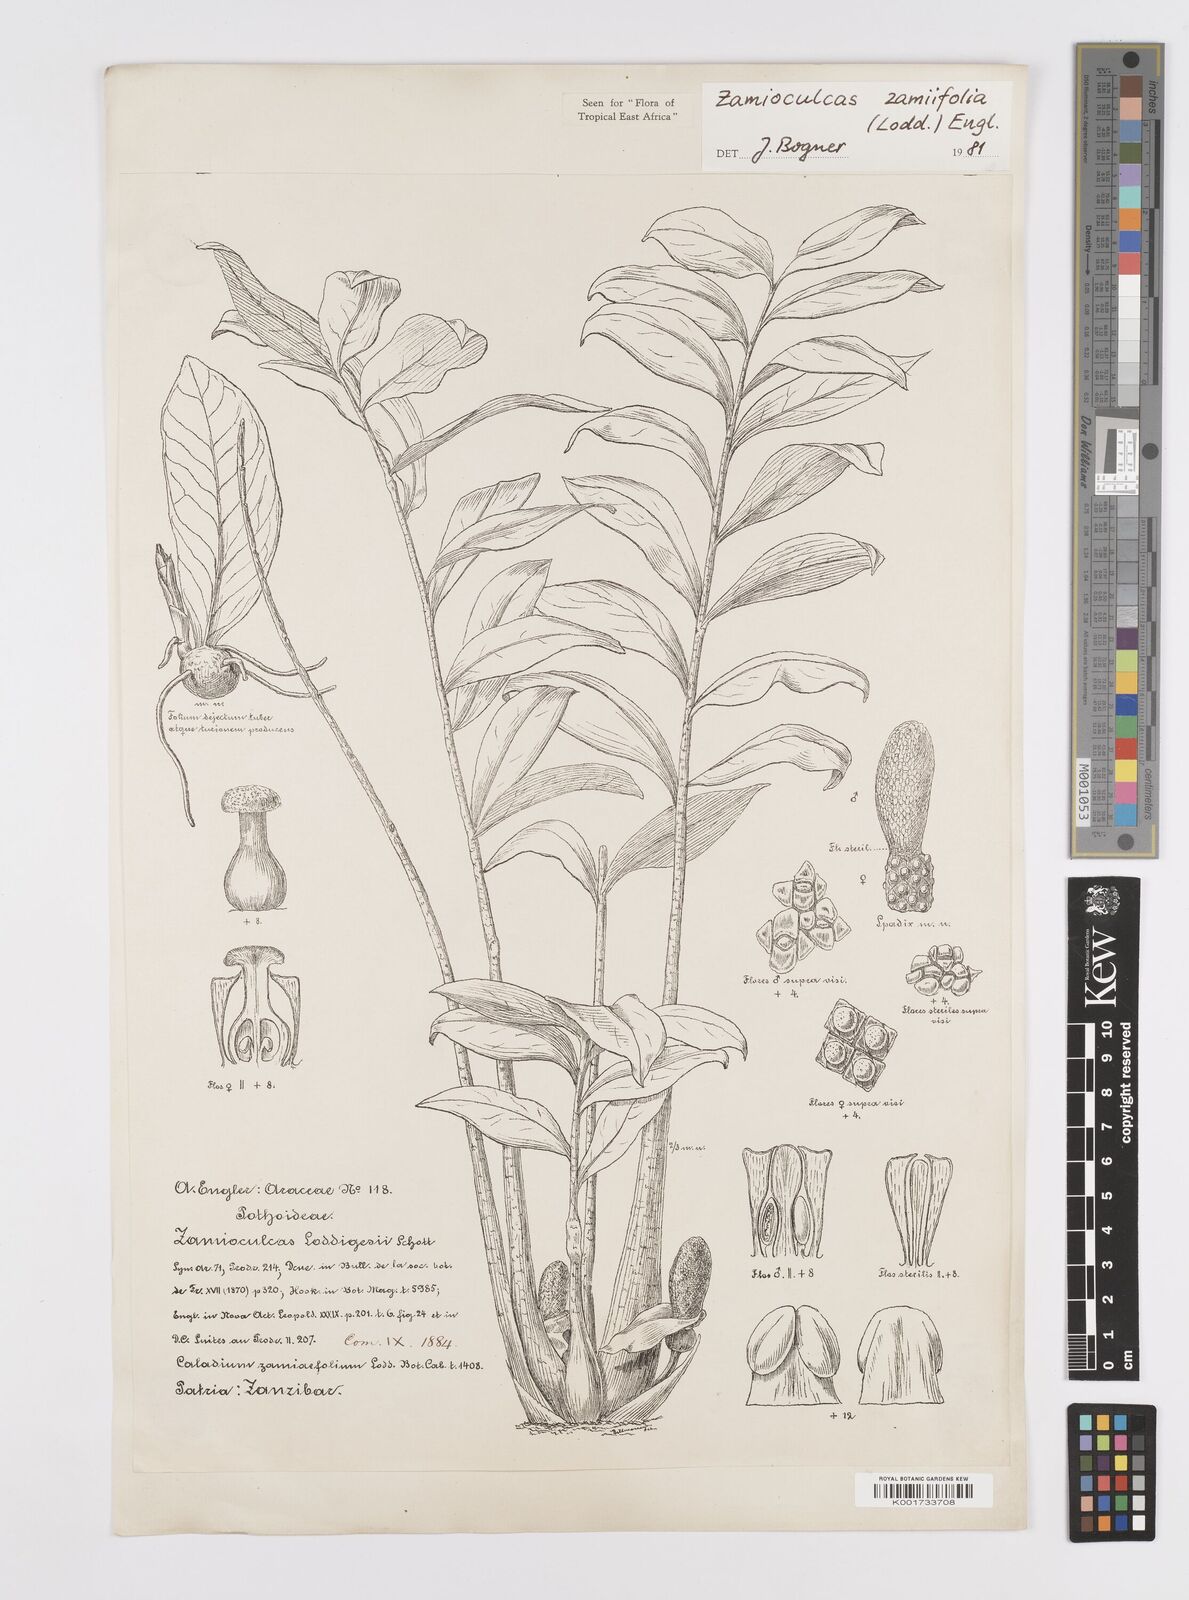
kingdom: Plantae
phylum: Tracheophyta
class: Liliopsida
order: Alismatales
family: Araceae
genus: Zamioculcas
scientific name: Zamioculcas zamiifolia
